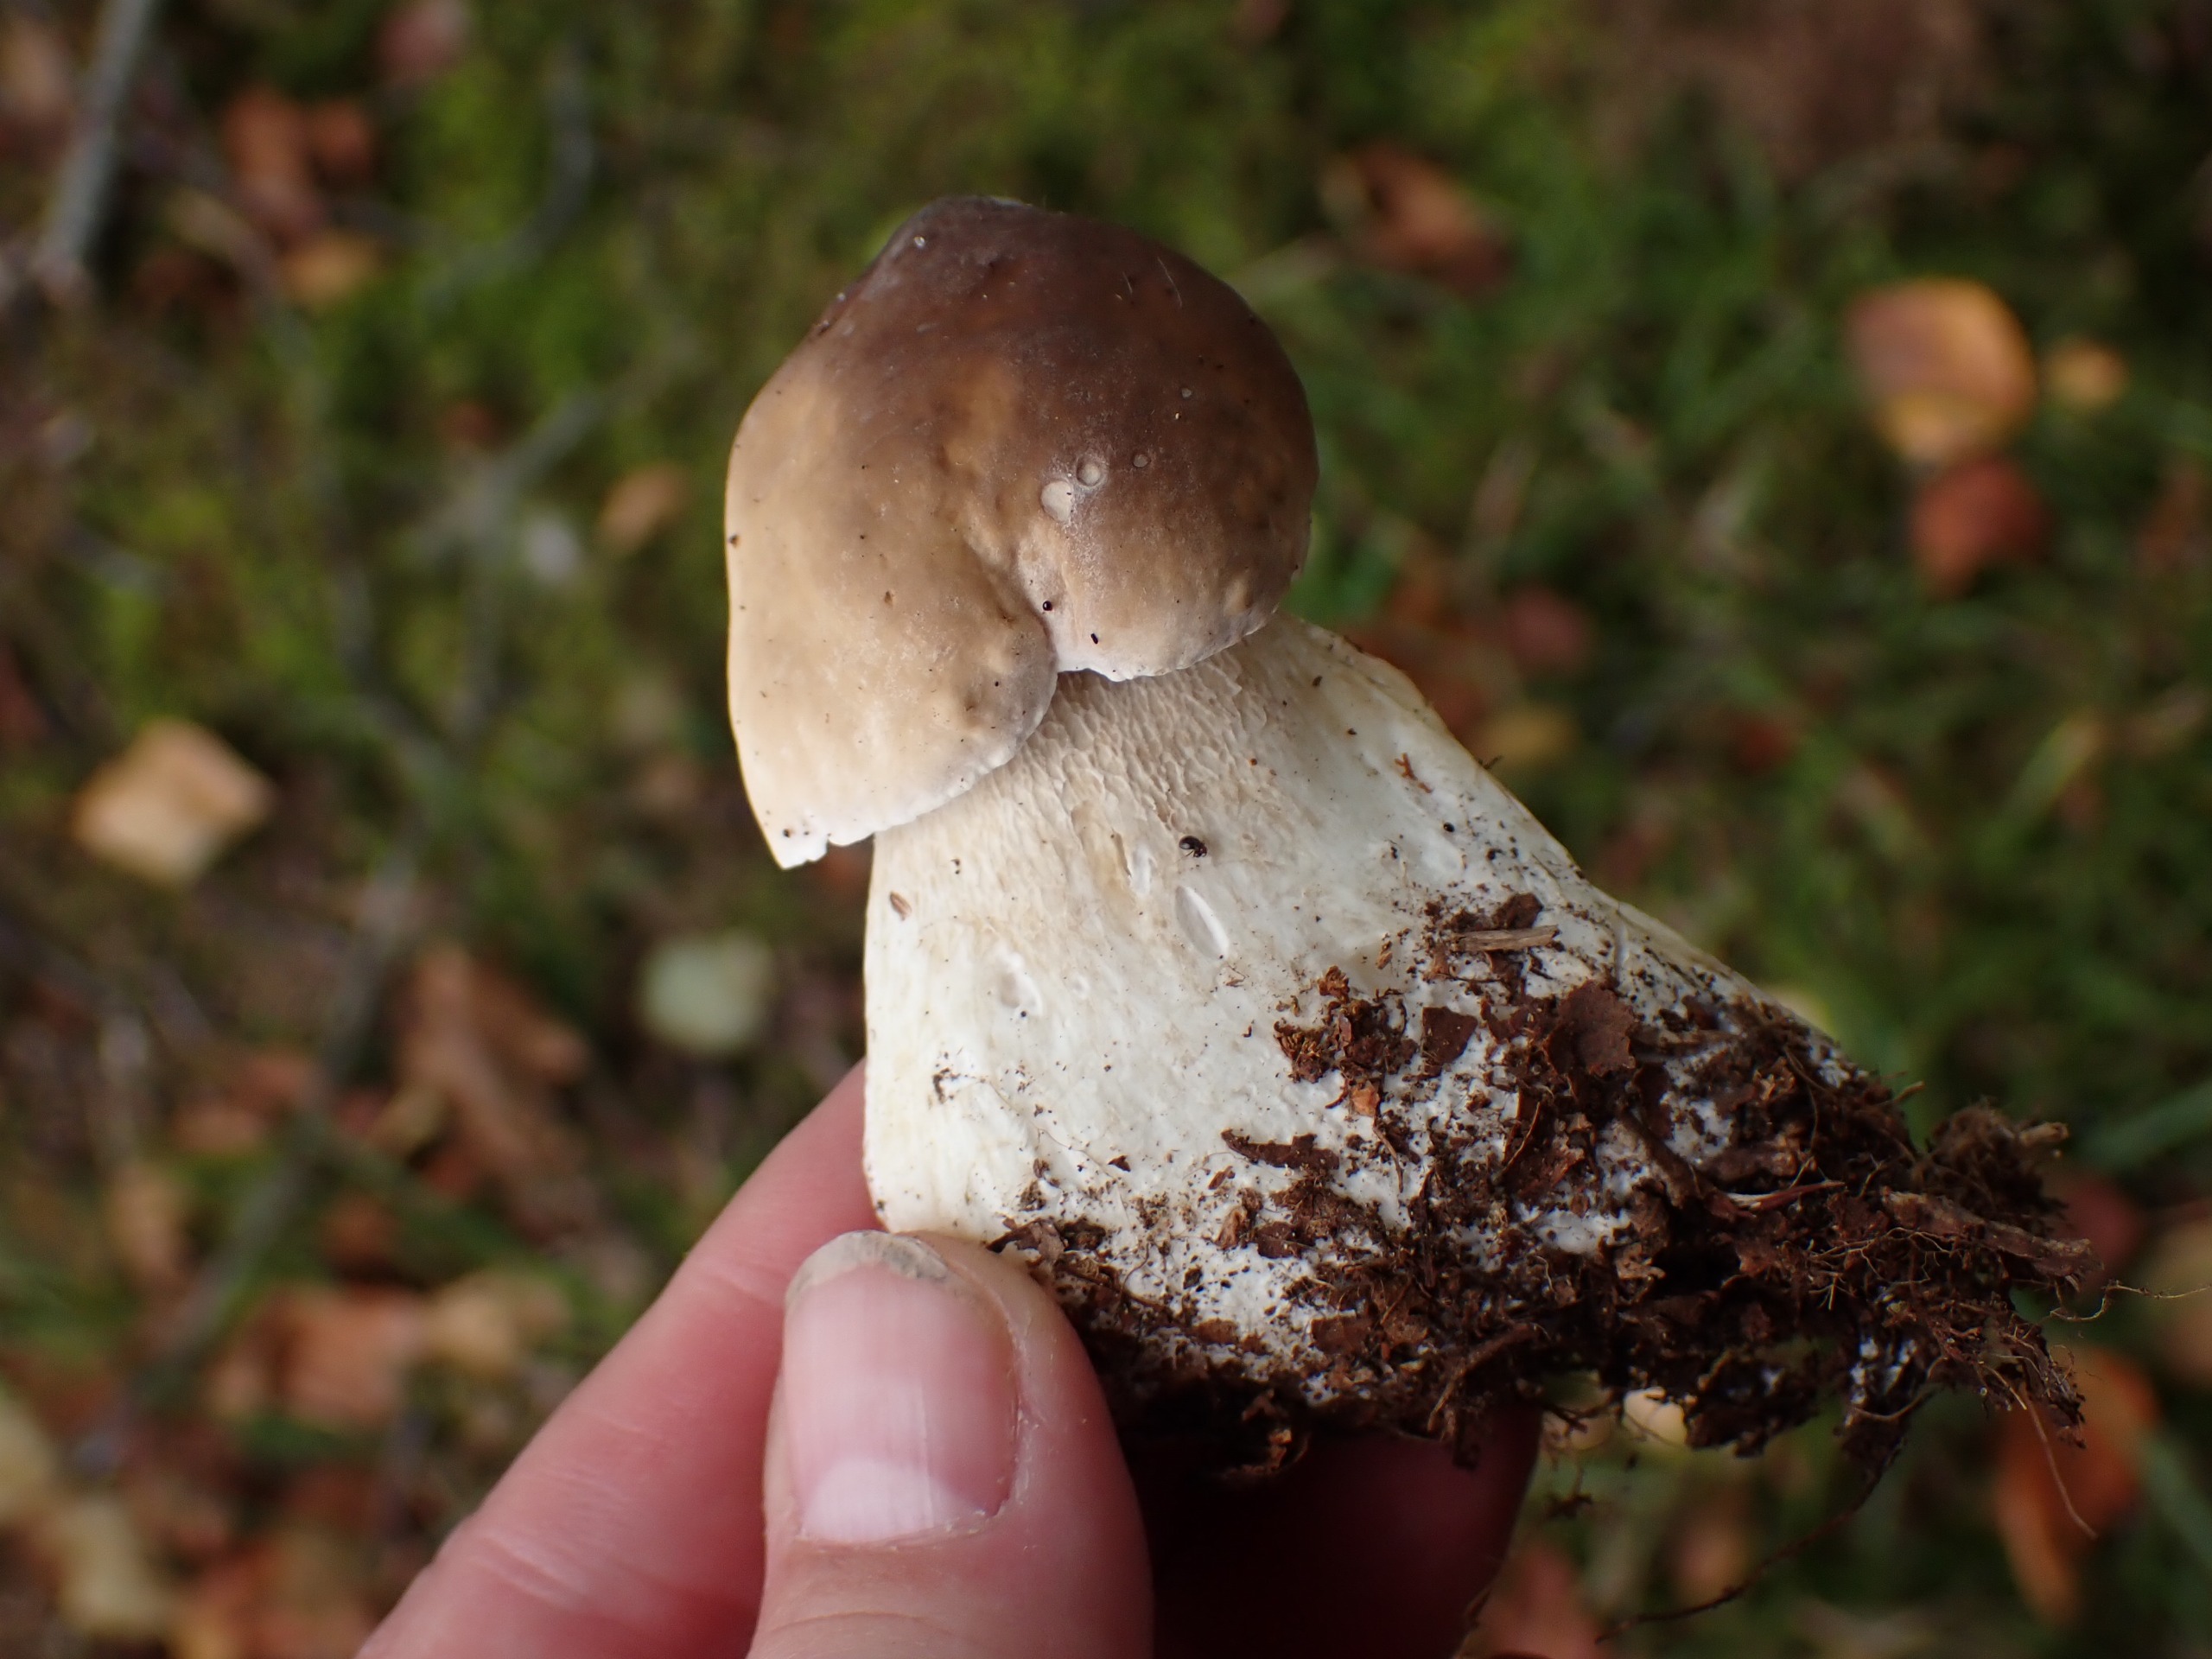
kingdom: Fungi
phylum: Basidiomycota
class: Agaricomycetes
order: Boletales
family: Boletaceae
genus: Boletus
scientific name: Boletus edulis
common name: Spiselig rørhat/karl johan
